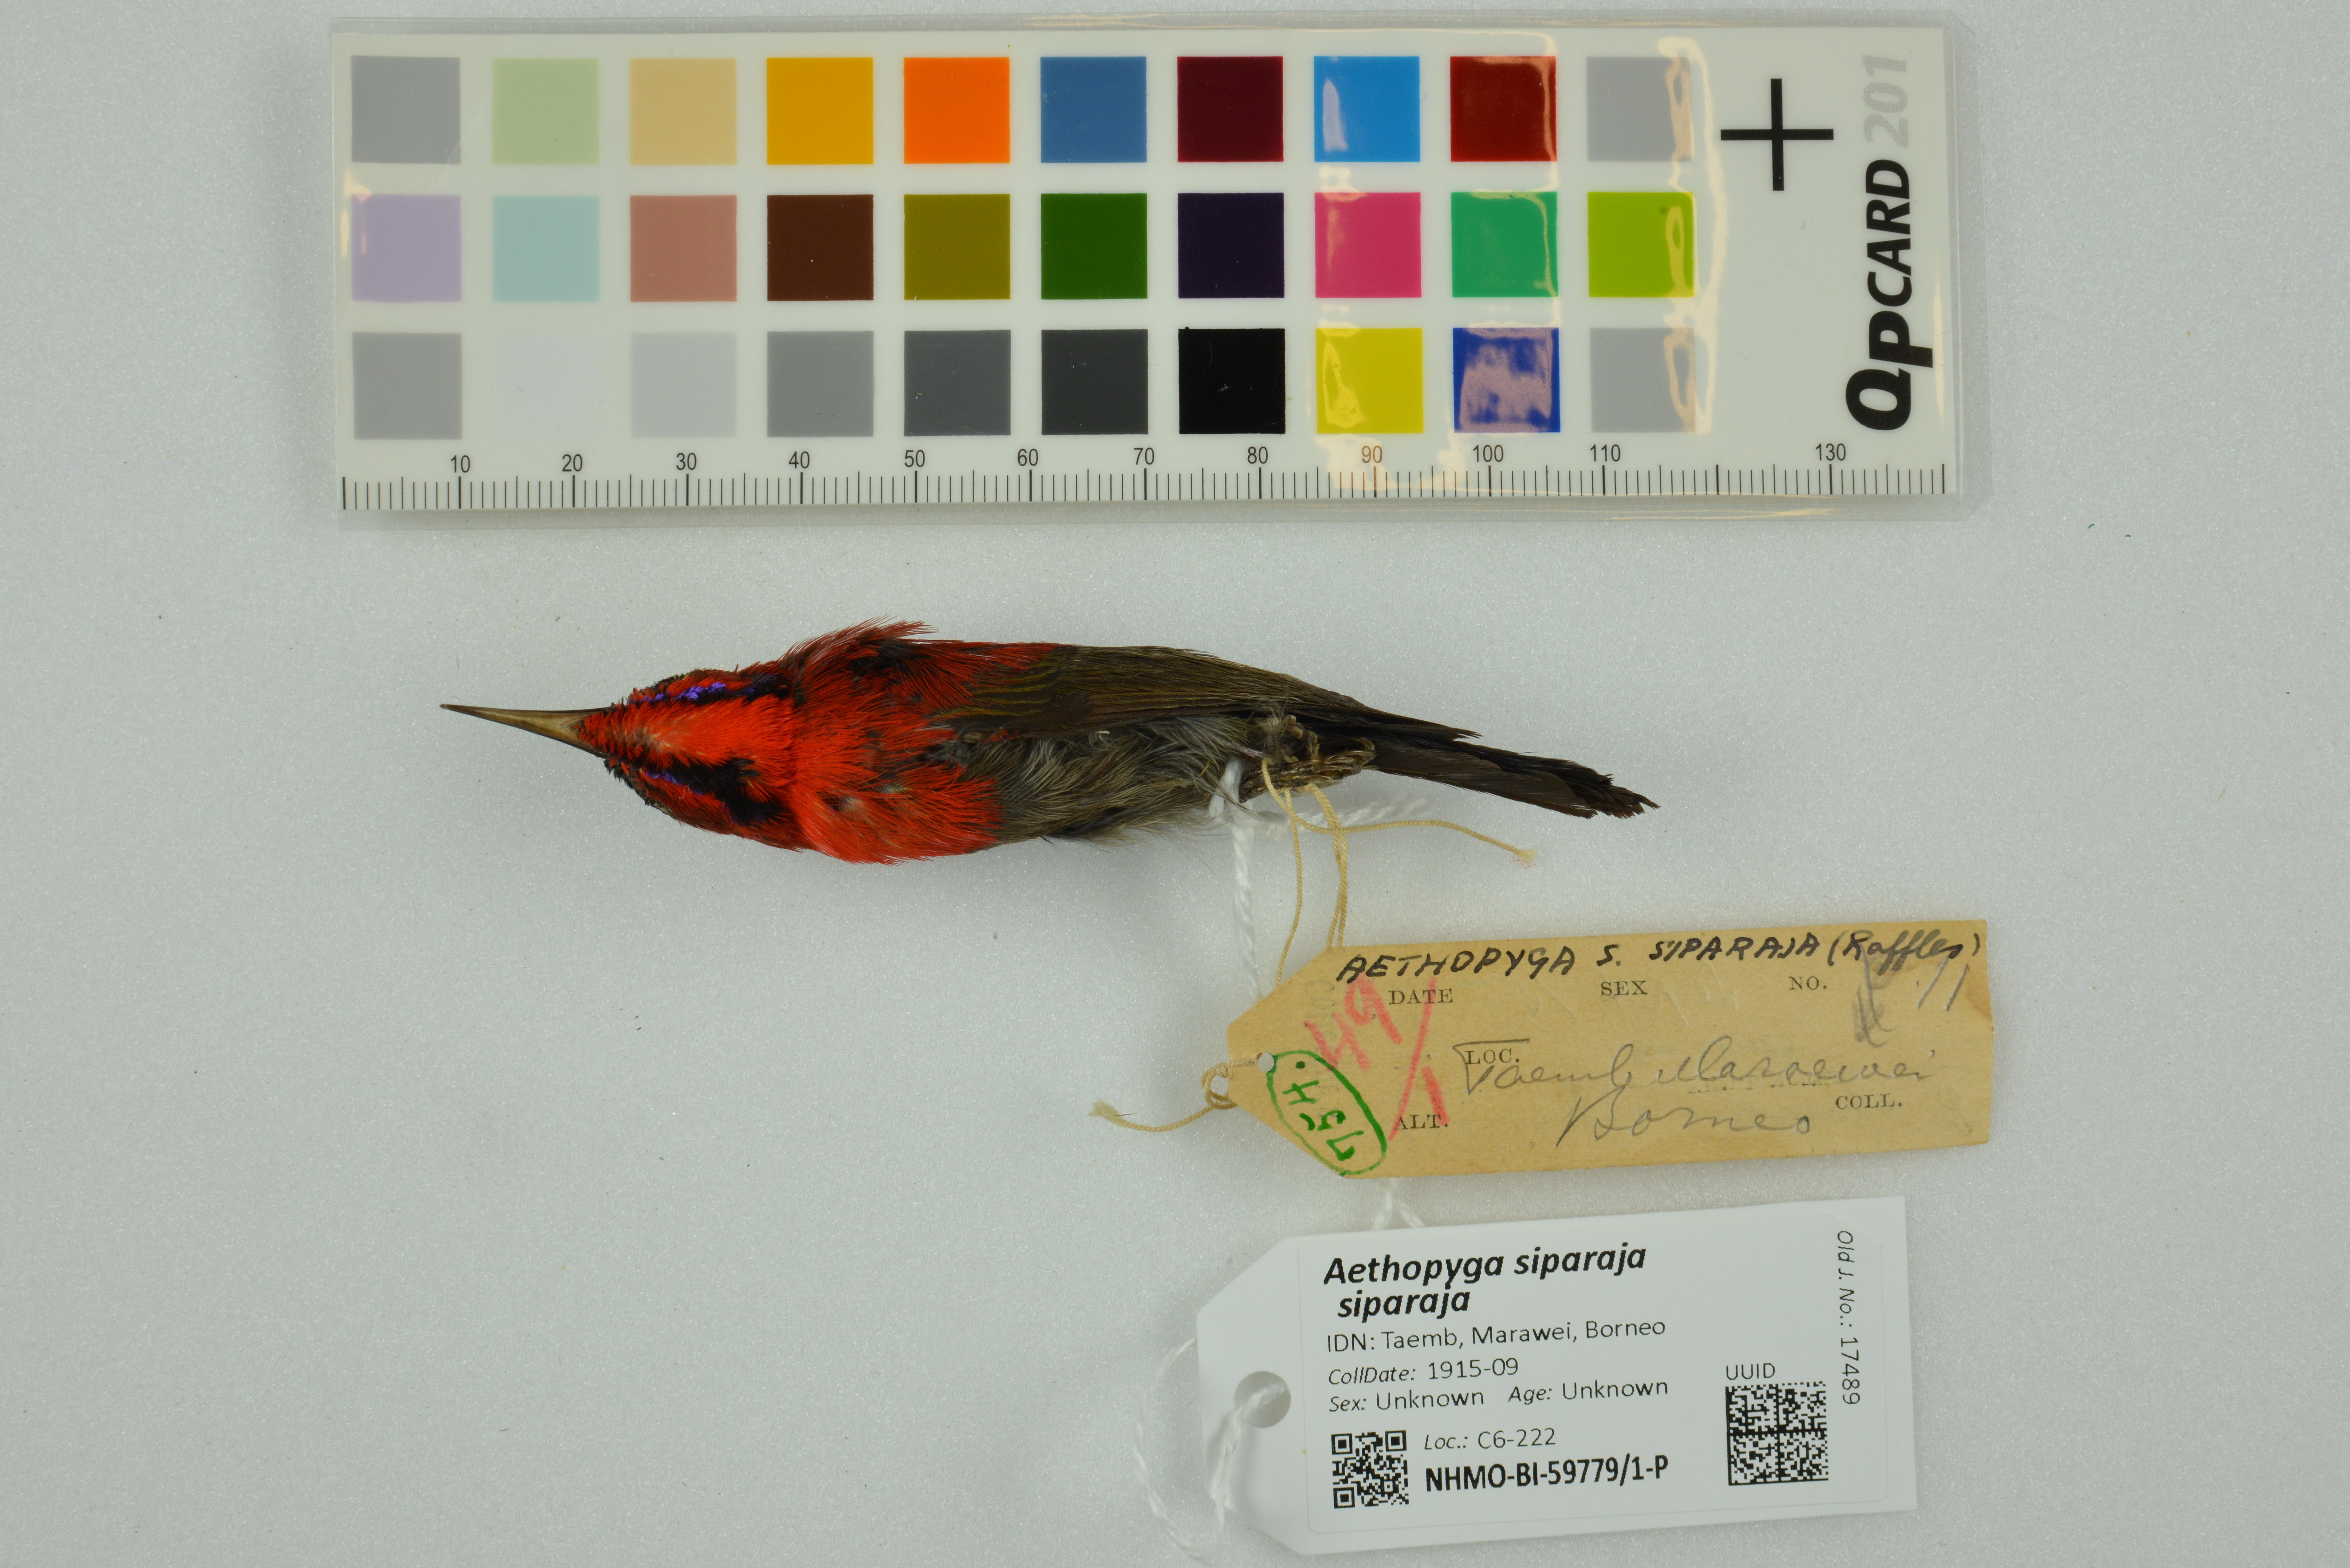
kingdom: Animalia
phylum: Chordata
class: Aves
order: Passeriformes
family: Nectariniidae
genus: Aethopyga
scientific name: Aethopyga siparaja
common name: Crimson sunbird
